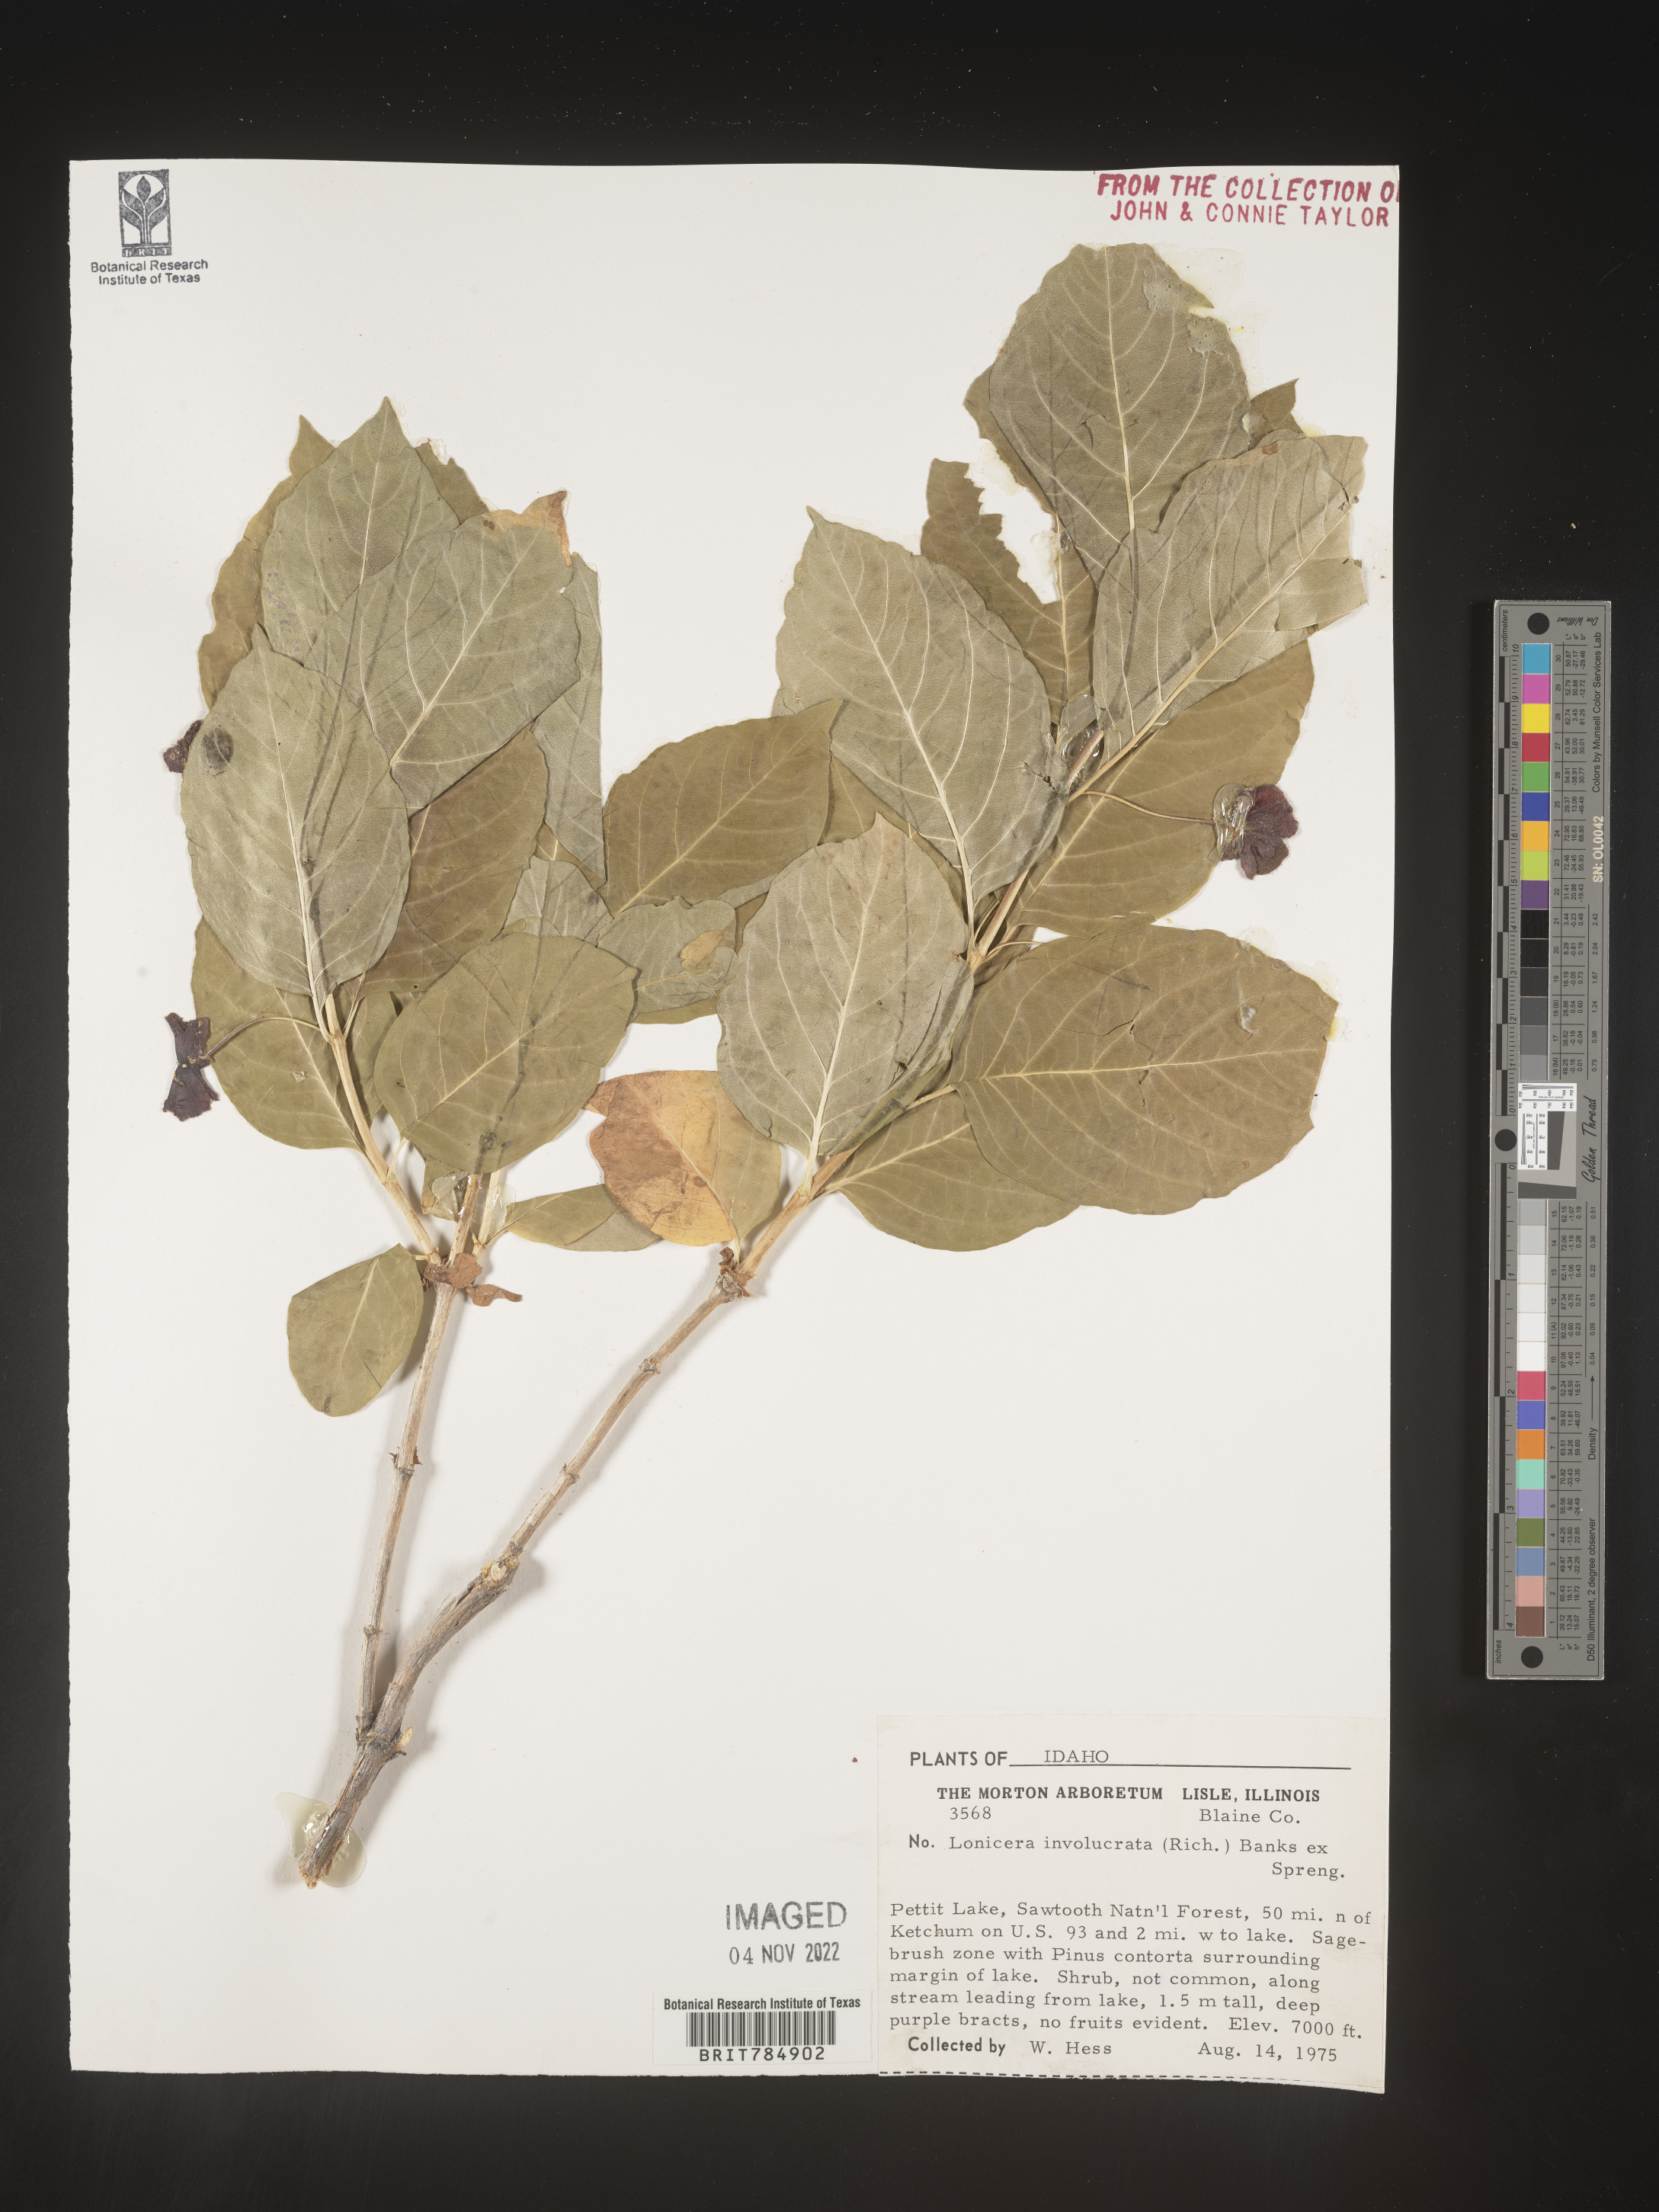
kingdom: Plantae
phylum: Tracheophyta
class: Magnoliopsida
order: Dipsacales
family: Caprifoliaceae
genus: Lonicera
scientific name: Lonicera involucrata
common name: Californian honeysuckle
